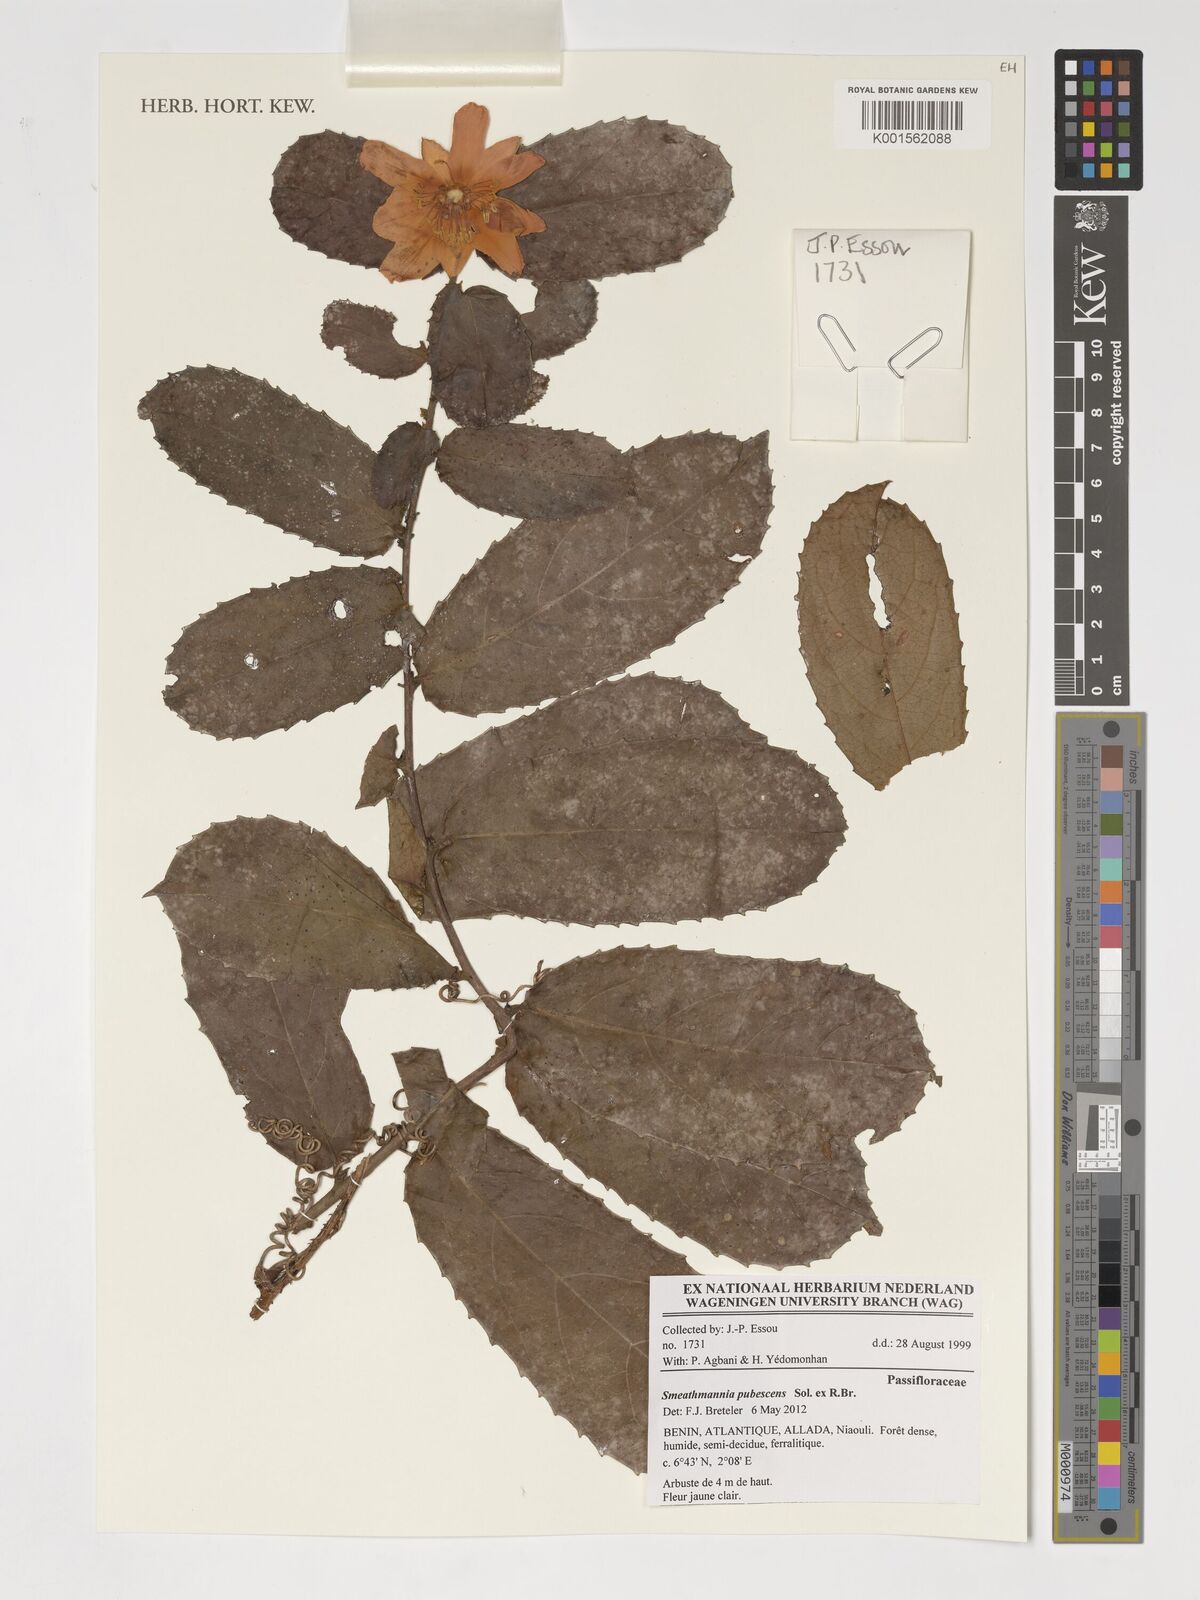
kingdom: Plantae
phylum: Tracheophyta
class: Magnoliopsida
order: Malpighiales
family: Passifloraceae
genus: Smeathmannia
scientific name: Smeathmannia pubescens
